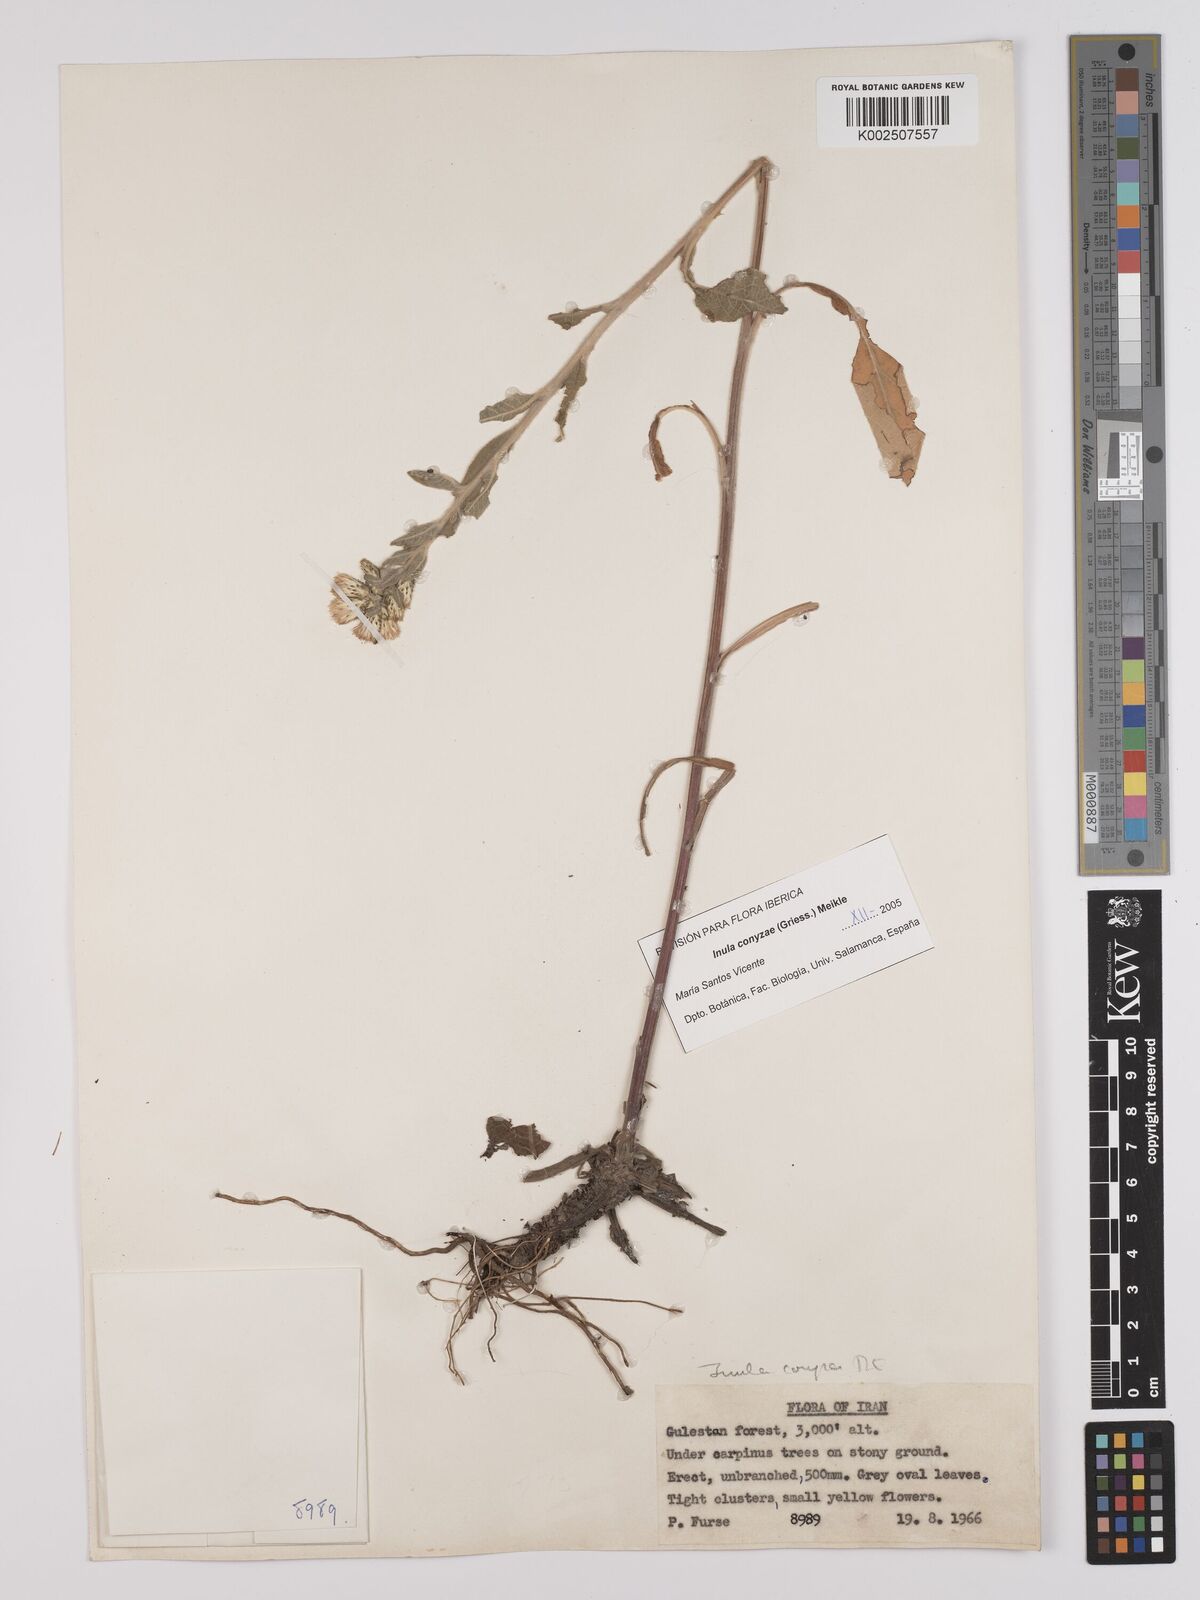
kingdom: Plantae
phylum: Tracheophyta
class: Magnoliopsida
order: Asterales
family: Asteraceae
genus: Pentanema
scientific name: Pentanema squarrosum
